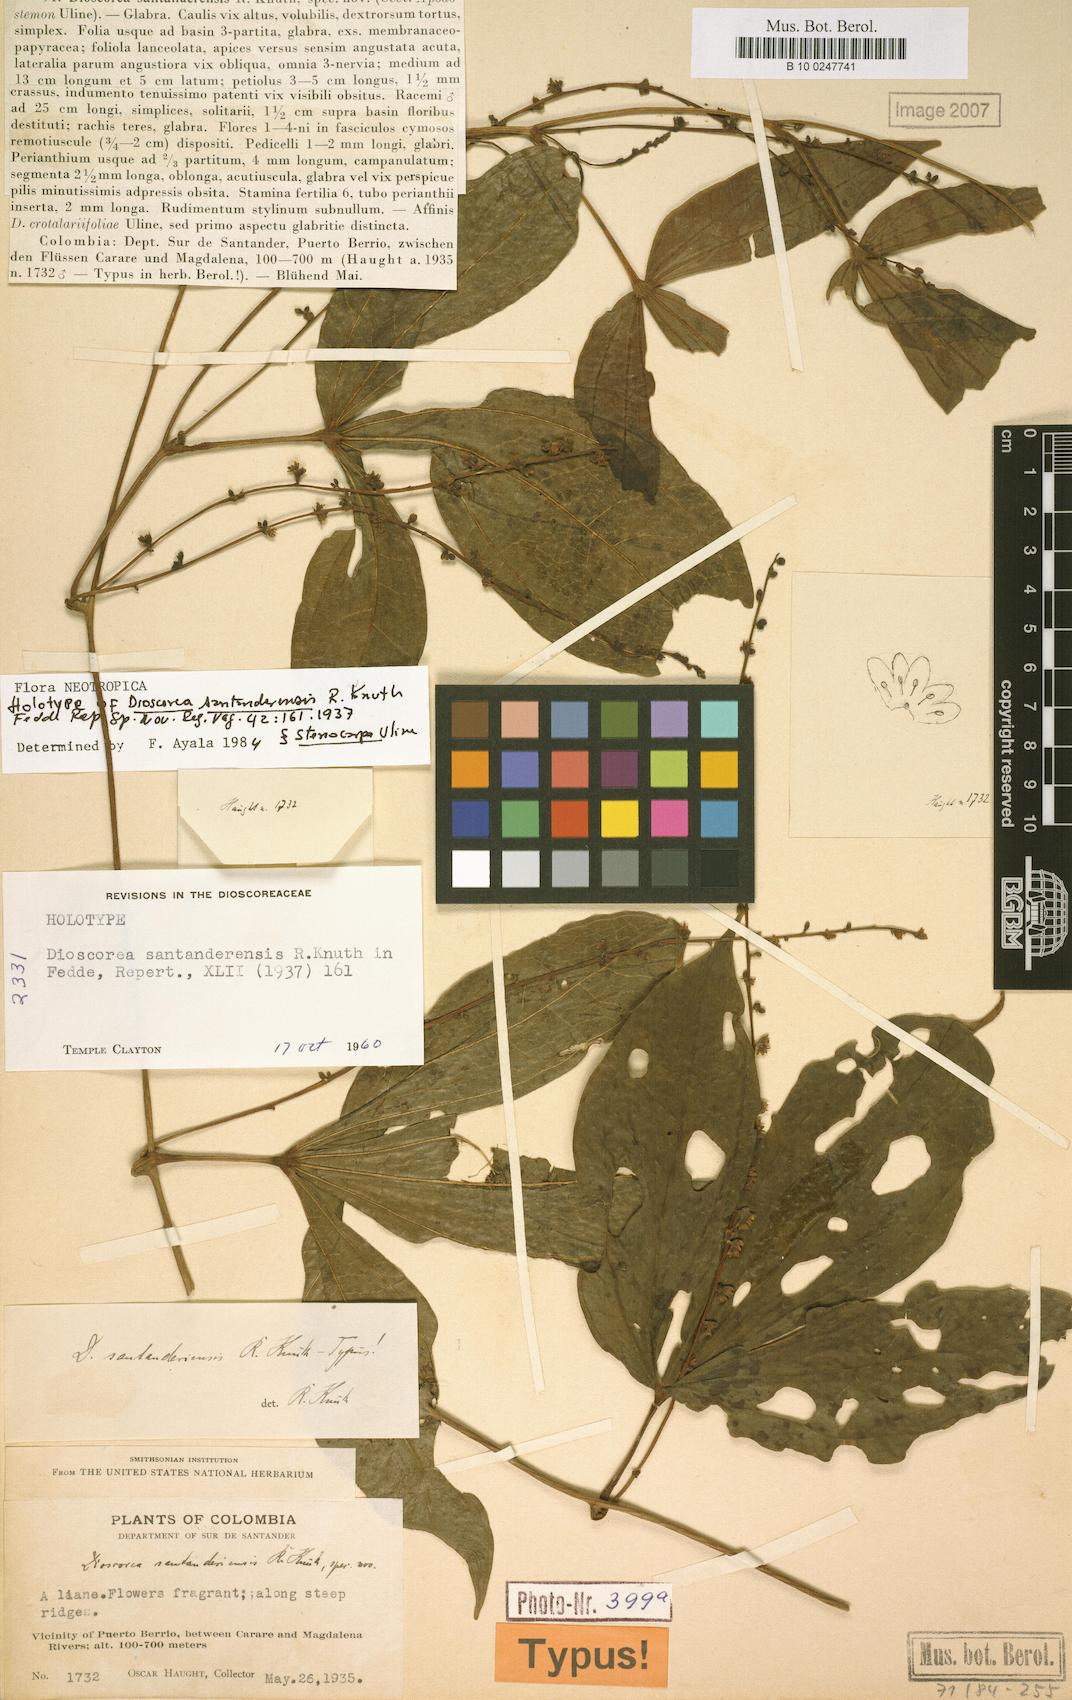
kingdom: Plantae
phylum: Tracheophyta
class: Liliopsida
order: Dioscoreales
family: Dioscoreaceae
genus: Dioscorea
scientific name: Dioscorea santanderensis
